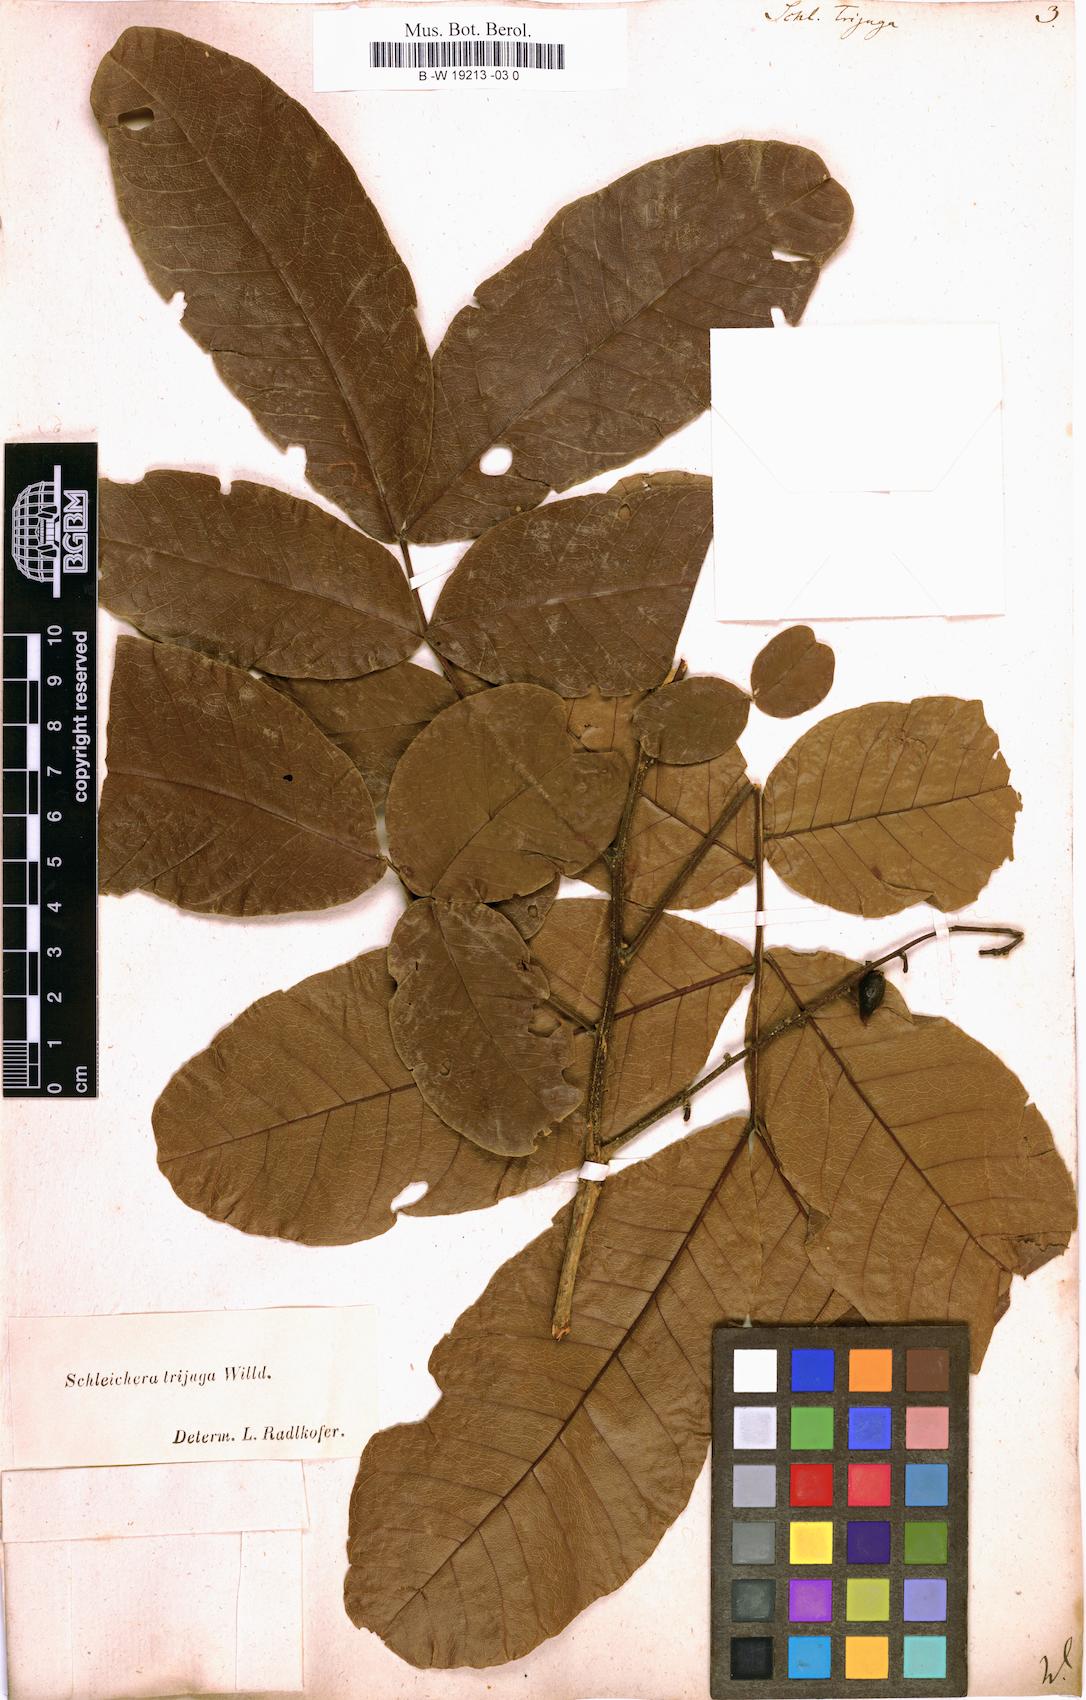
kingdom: Plantae
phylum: Tracheophyta
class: Magnoliopsida
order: Sapindales
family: Sapindaceae
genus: Schleichera
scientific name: Schleichera oleosa
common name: Malay lactree
